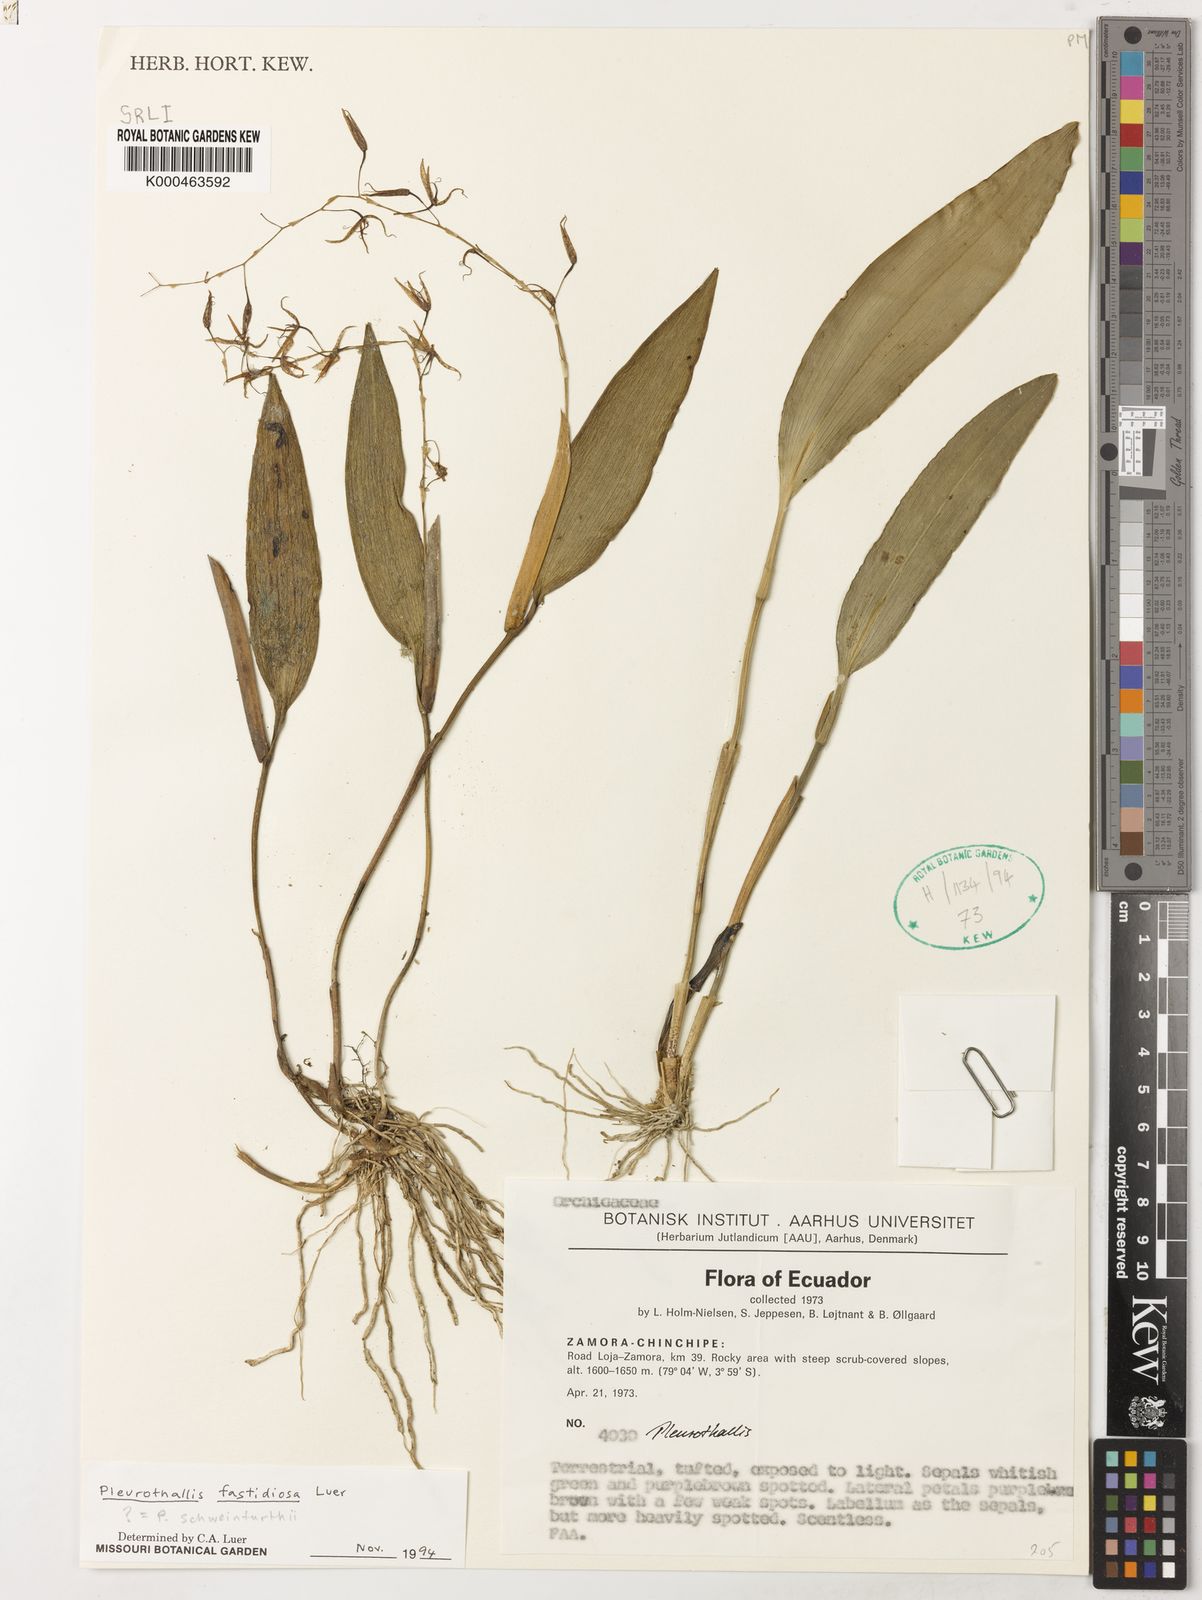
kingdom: Plantae
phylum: Tracheophyta
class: Liliopsida
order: Asparagales
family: Orchidaceae
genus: Pleurothallis
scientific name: Pleurothallis fastidiosa
